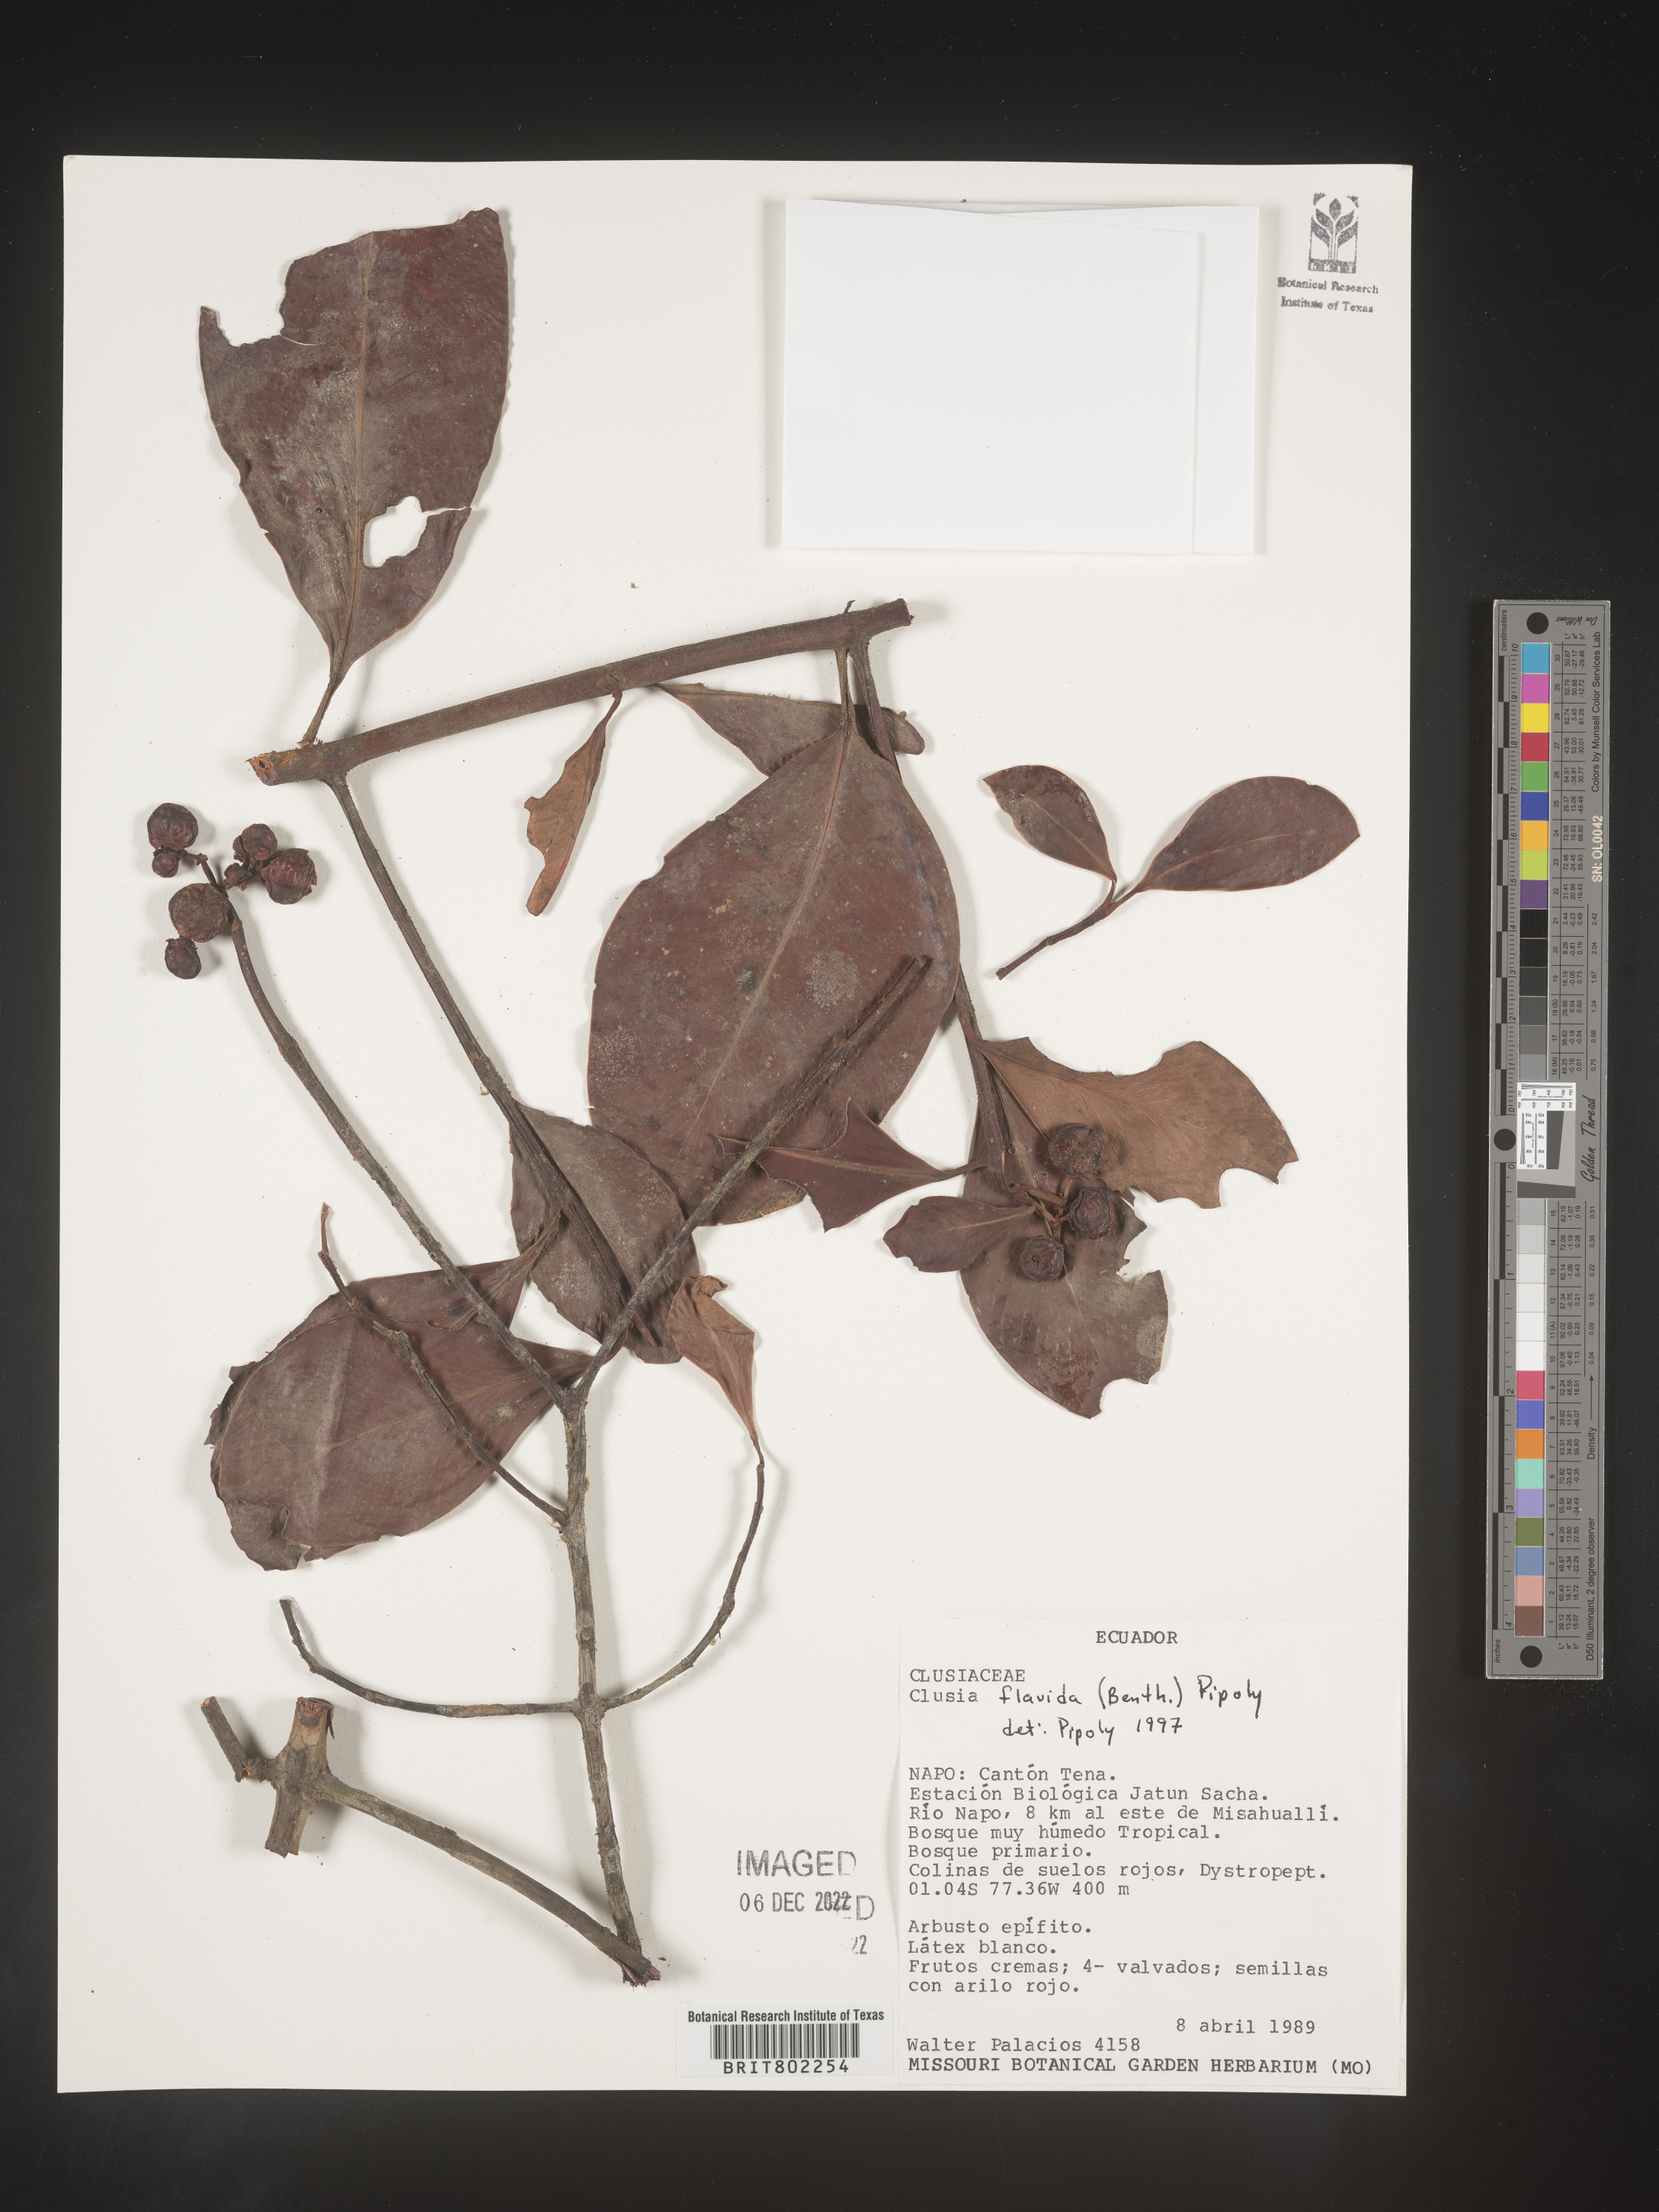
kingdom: Plantae
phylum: Tracheophyta
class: Magnoliopsida
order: Malpighiales
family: Clusiaceae
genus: Clusia
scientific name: Clusia flavida
